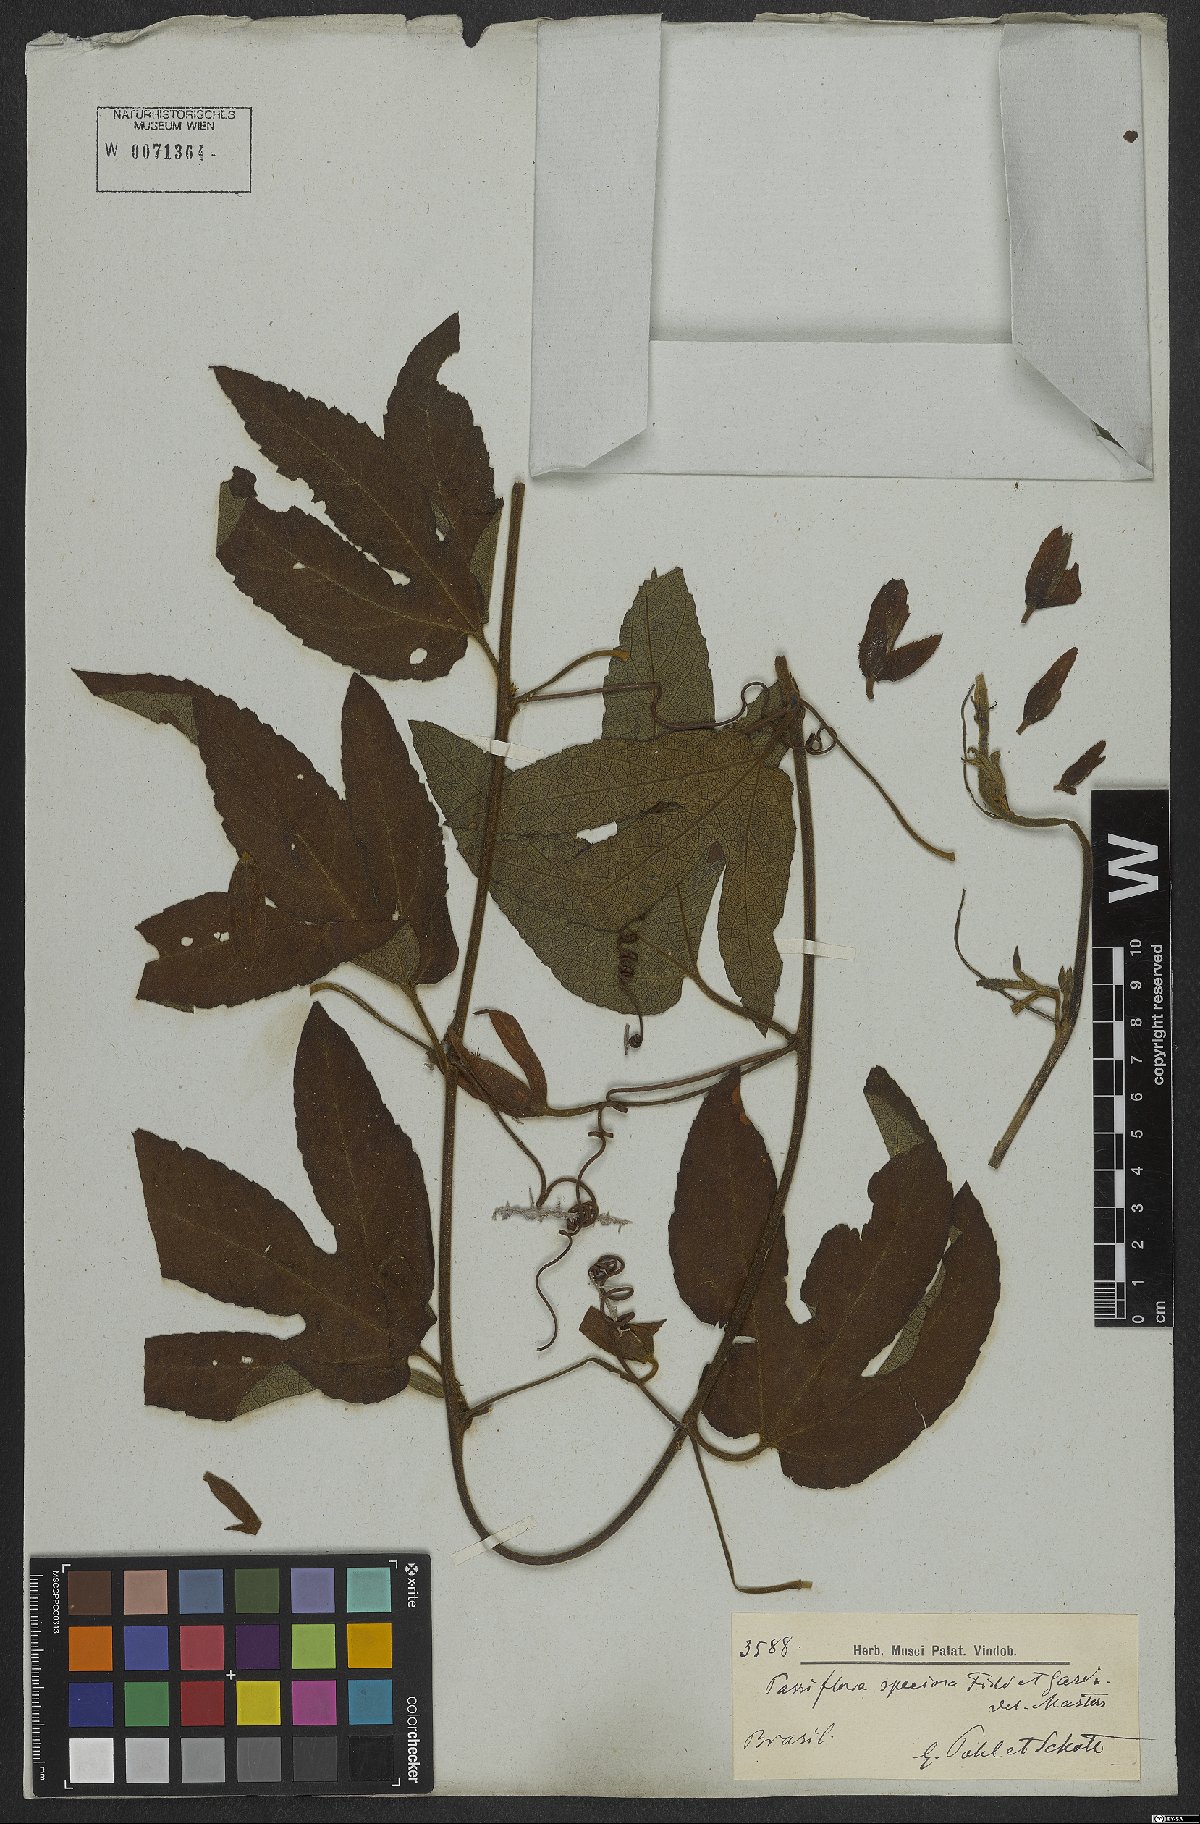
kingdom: Plantae
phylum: Tracheophyta
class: Magnoliopsida
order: Malpighiales
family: Passifloraceae
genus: Passiflora
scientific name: Passiflora speciosa
